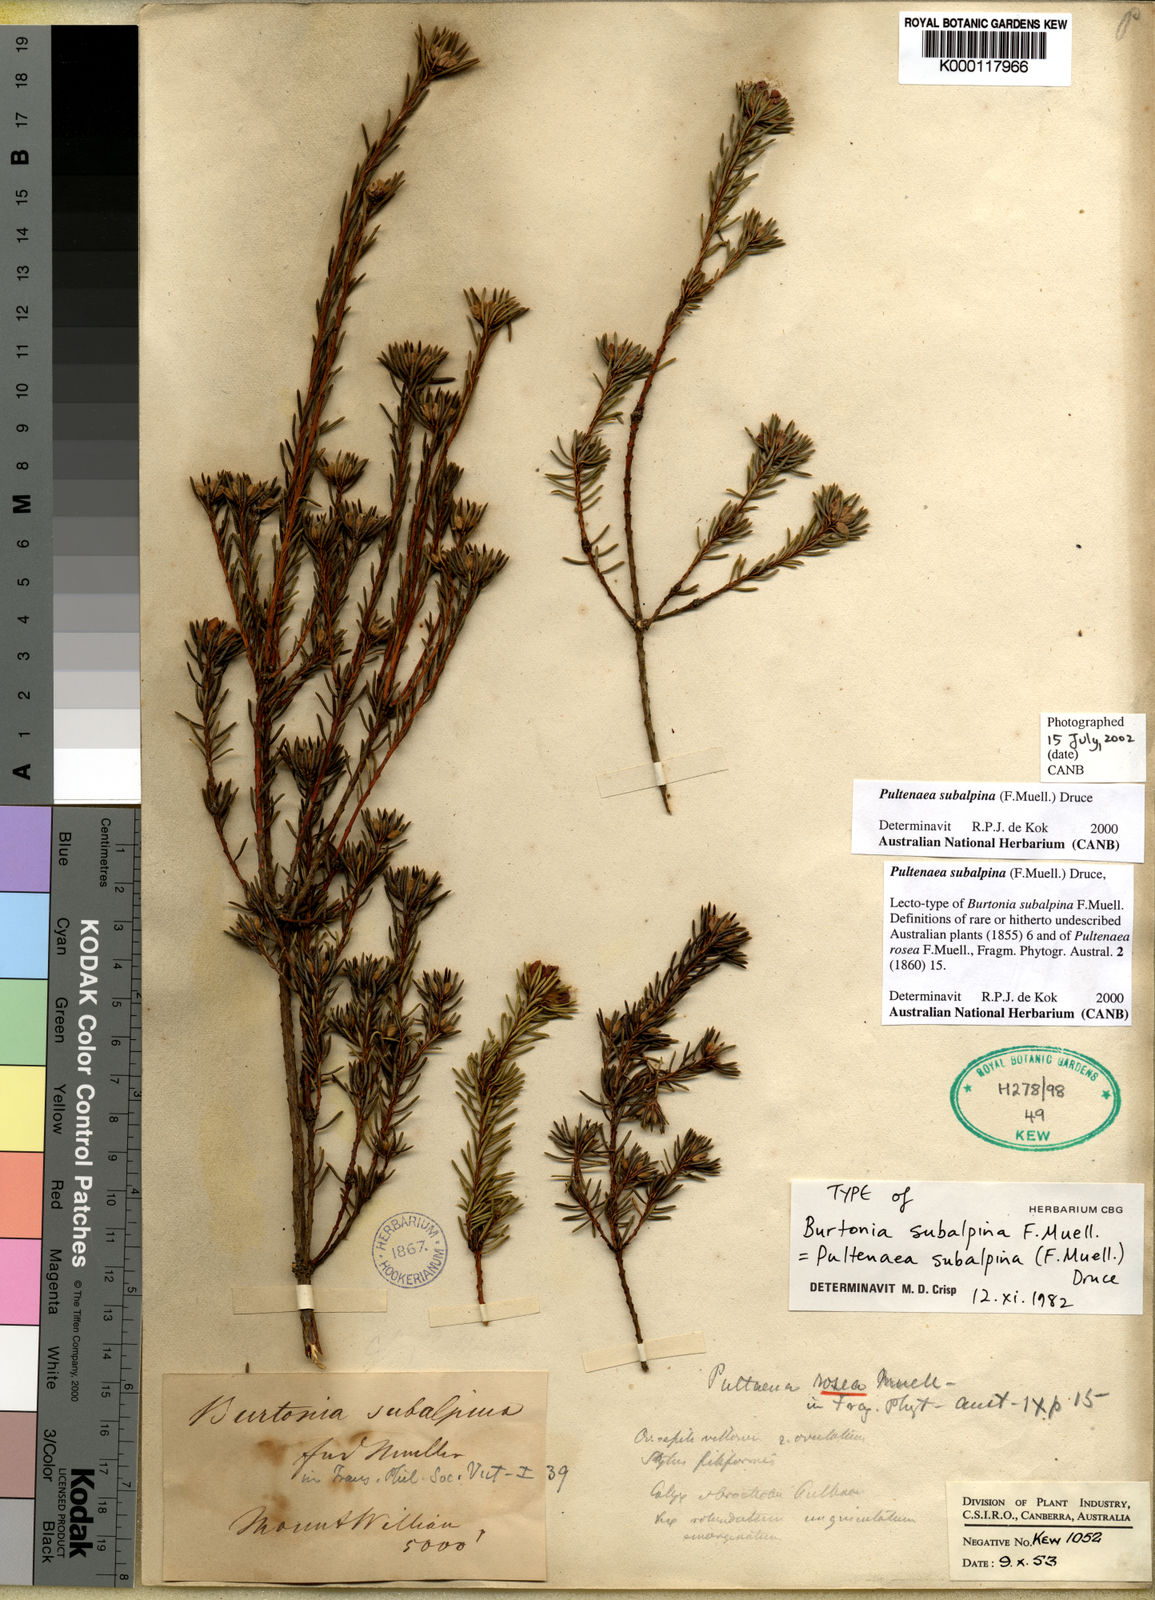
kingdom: Plantae
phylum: Tracheophyta
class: Magnoliopsida
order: Fabales
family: Fabaceae
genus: Pultenaea
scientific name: Pultenaea subalpina
